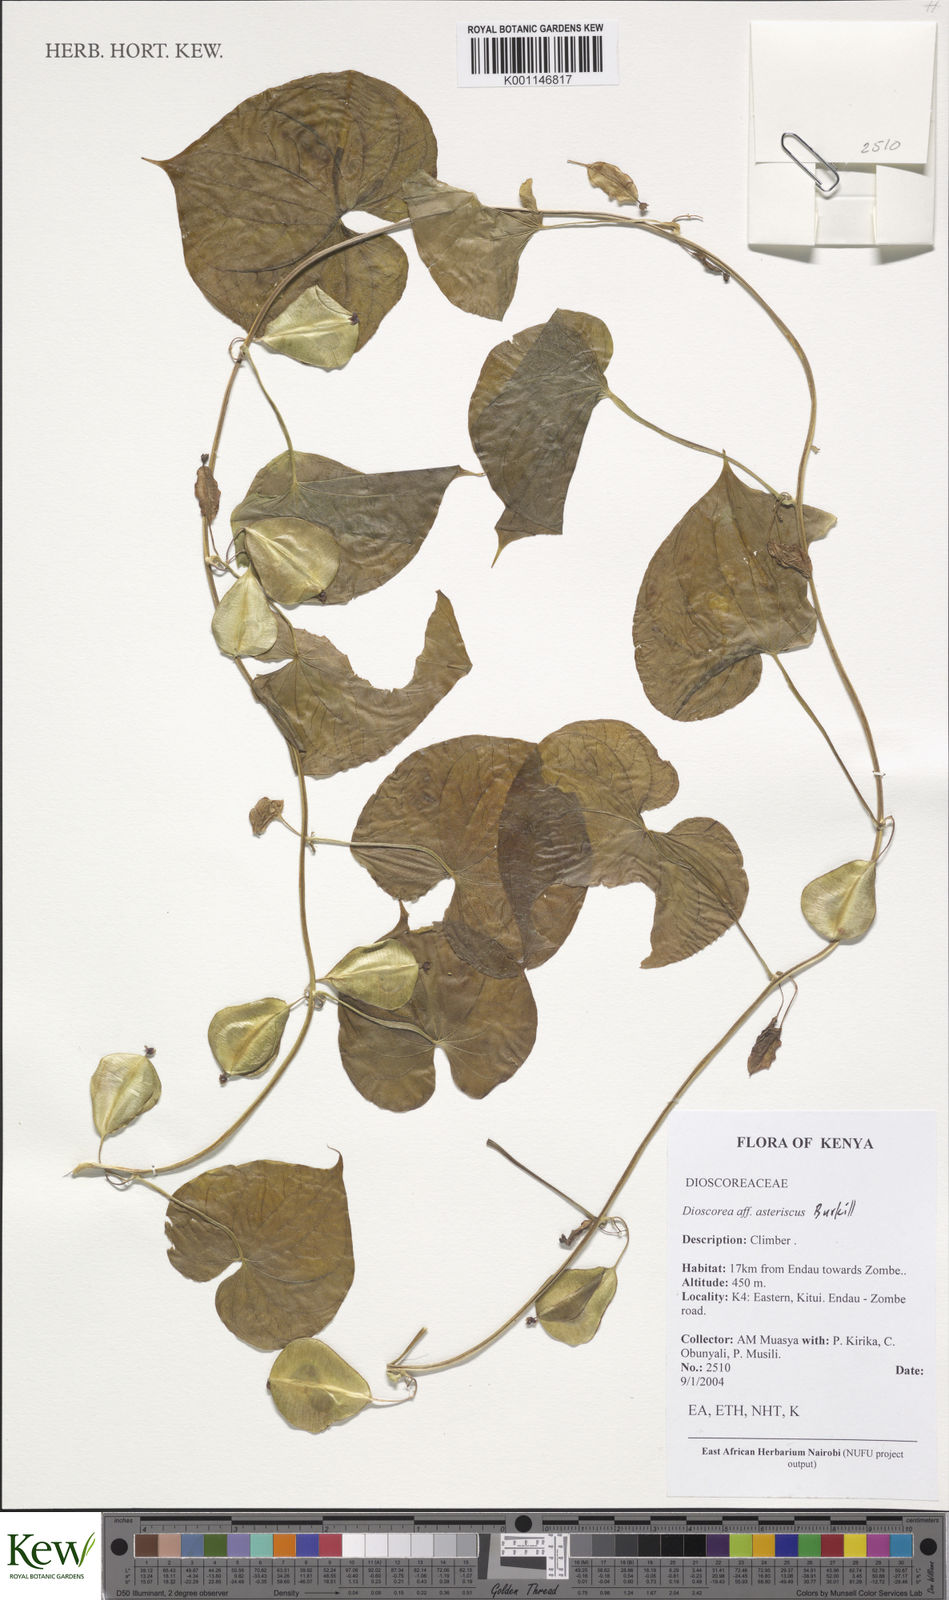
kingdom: Plantae
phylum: Tracheophyta
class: Liliopsida
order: Dioscoreales
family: Dioscoreaceae
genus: Dioscorea
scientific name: Dioscorea asteriscus
